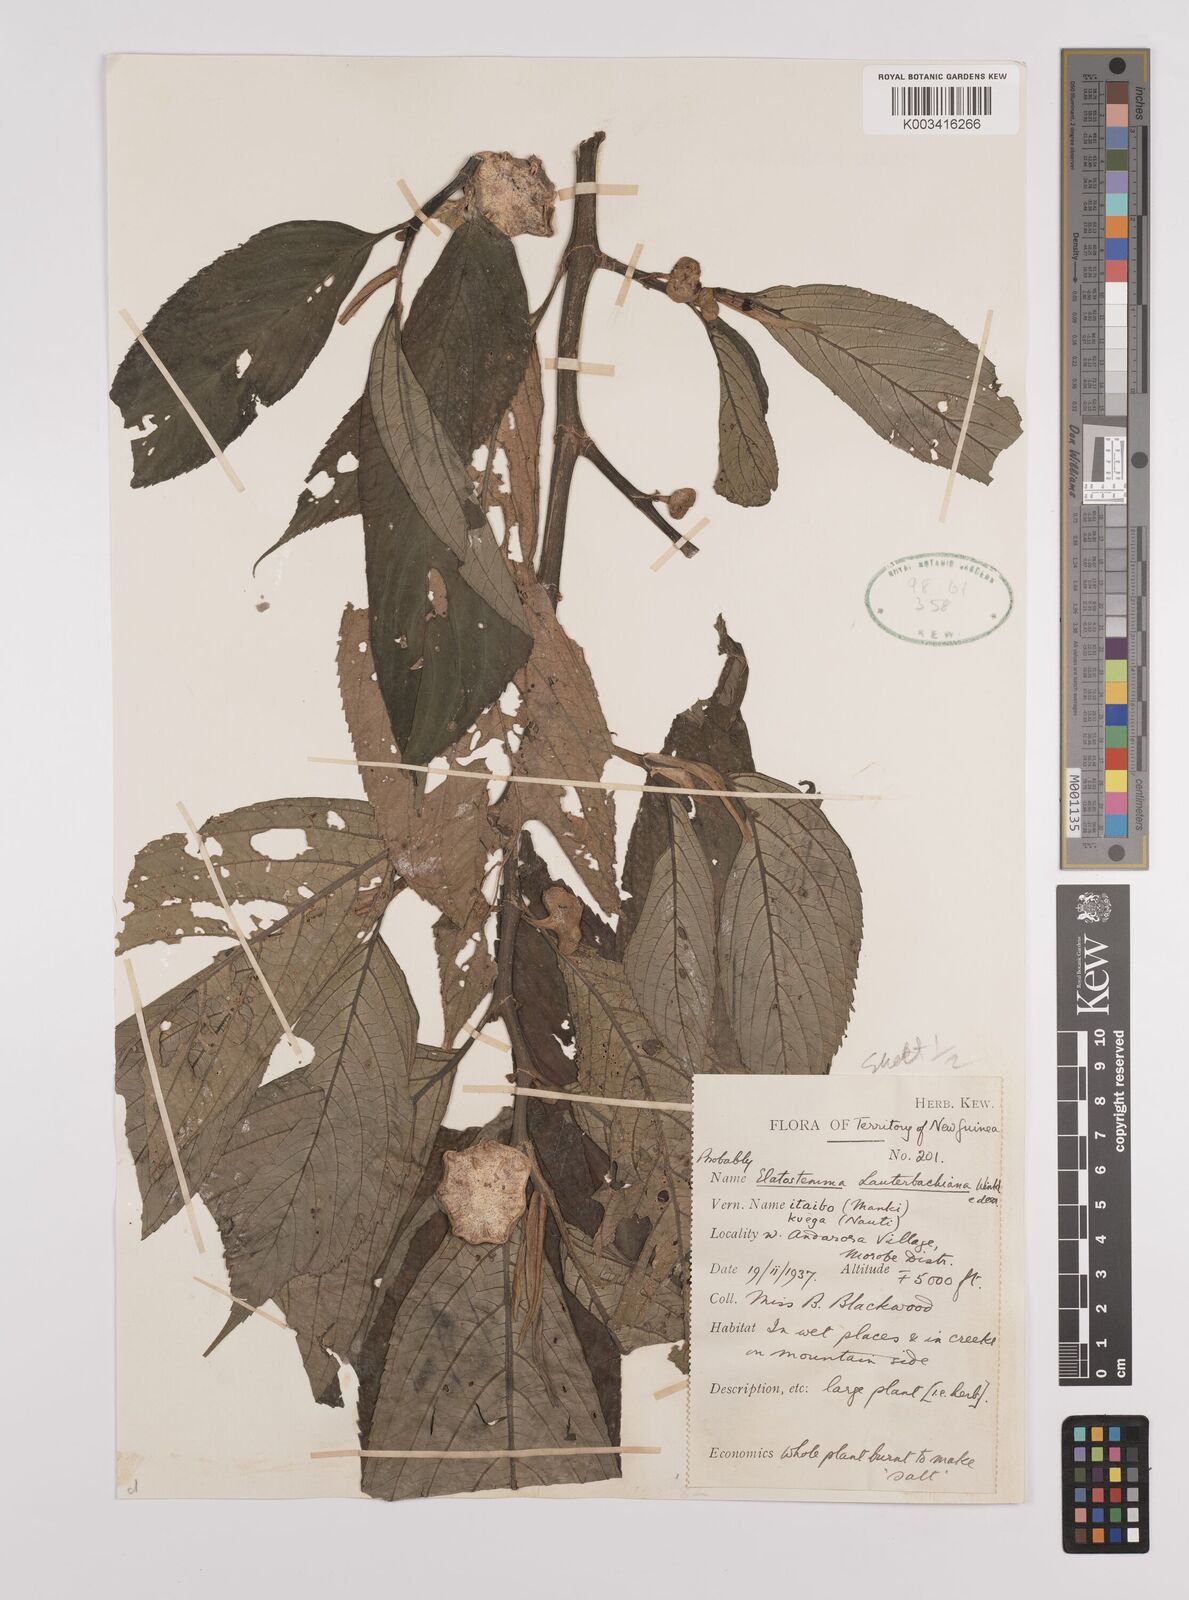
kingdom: Plantae
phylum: Tracheophyta
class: Magnoliopsida
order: Rosales
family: Urticaceae
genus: Elatostema
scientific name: Elatostema lauterbachii
